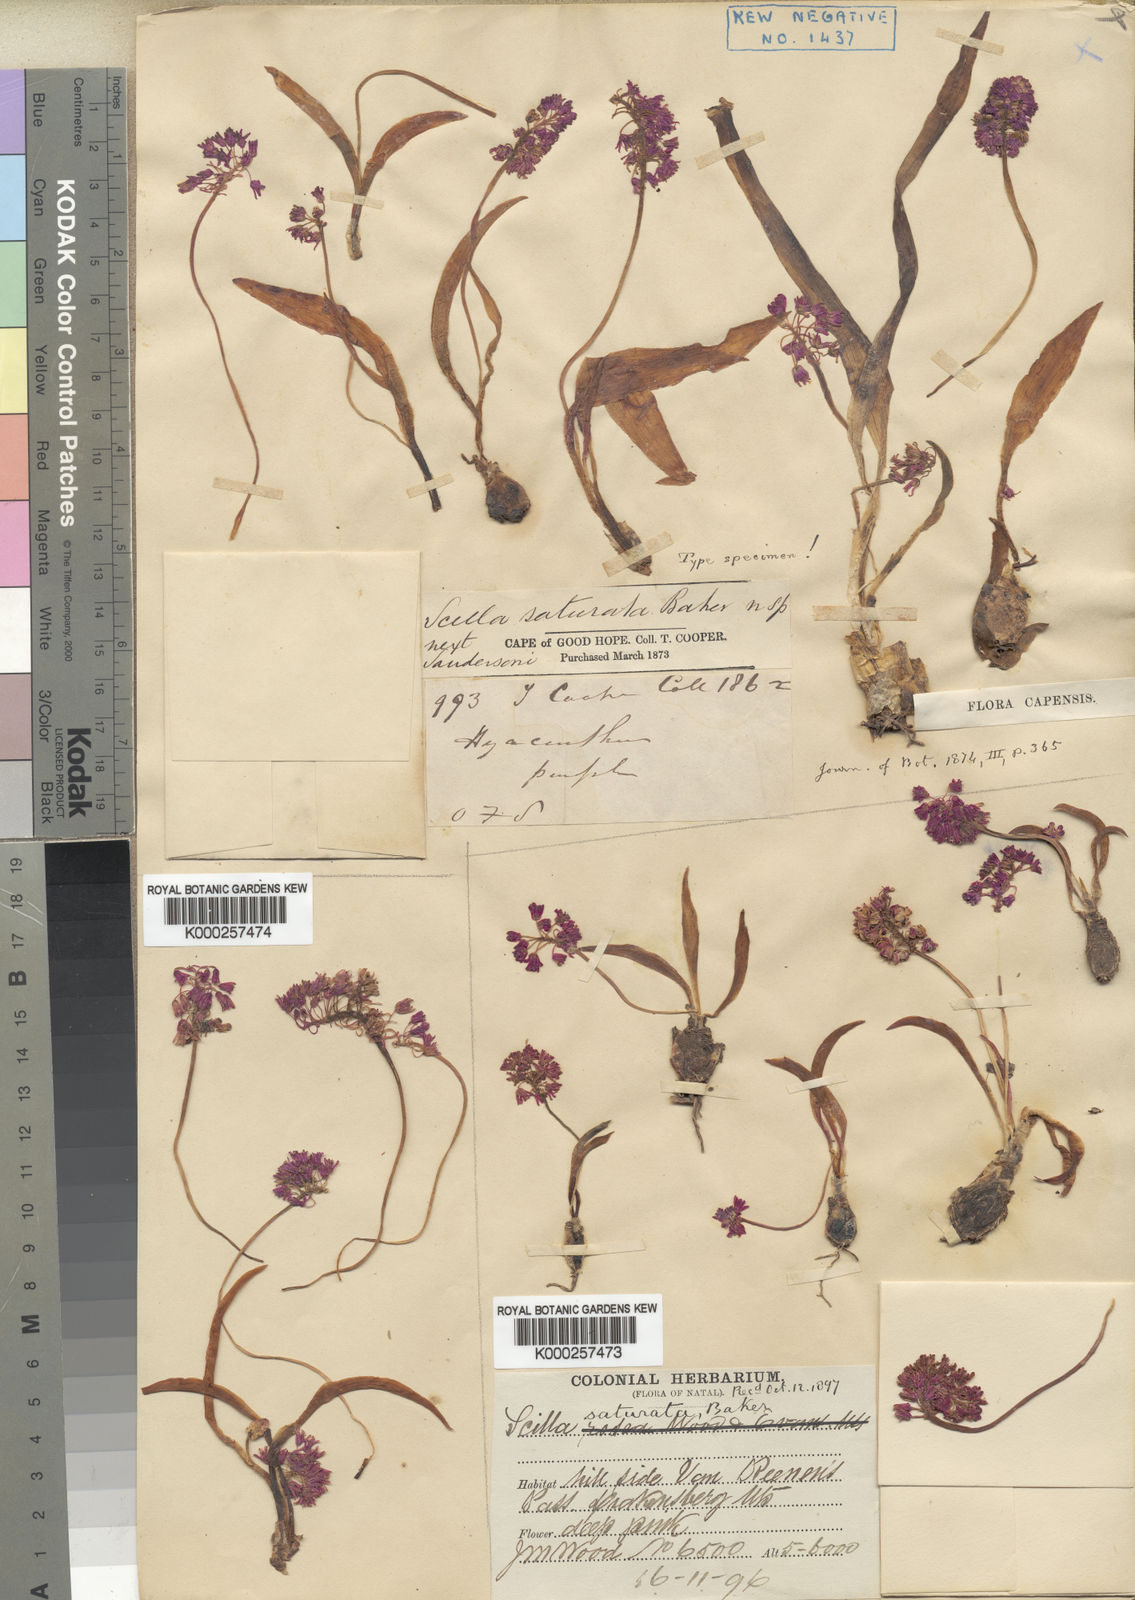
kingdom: Plantae
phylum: Tracheophyta
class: Liliopsida
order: Asparagales
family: Asparagaceae
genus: Ledebouria
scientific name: Ledebouria cooperi
